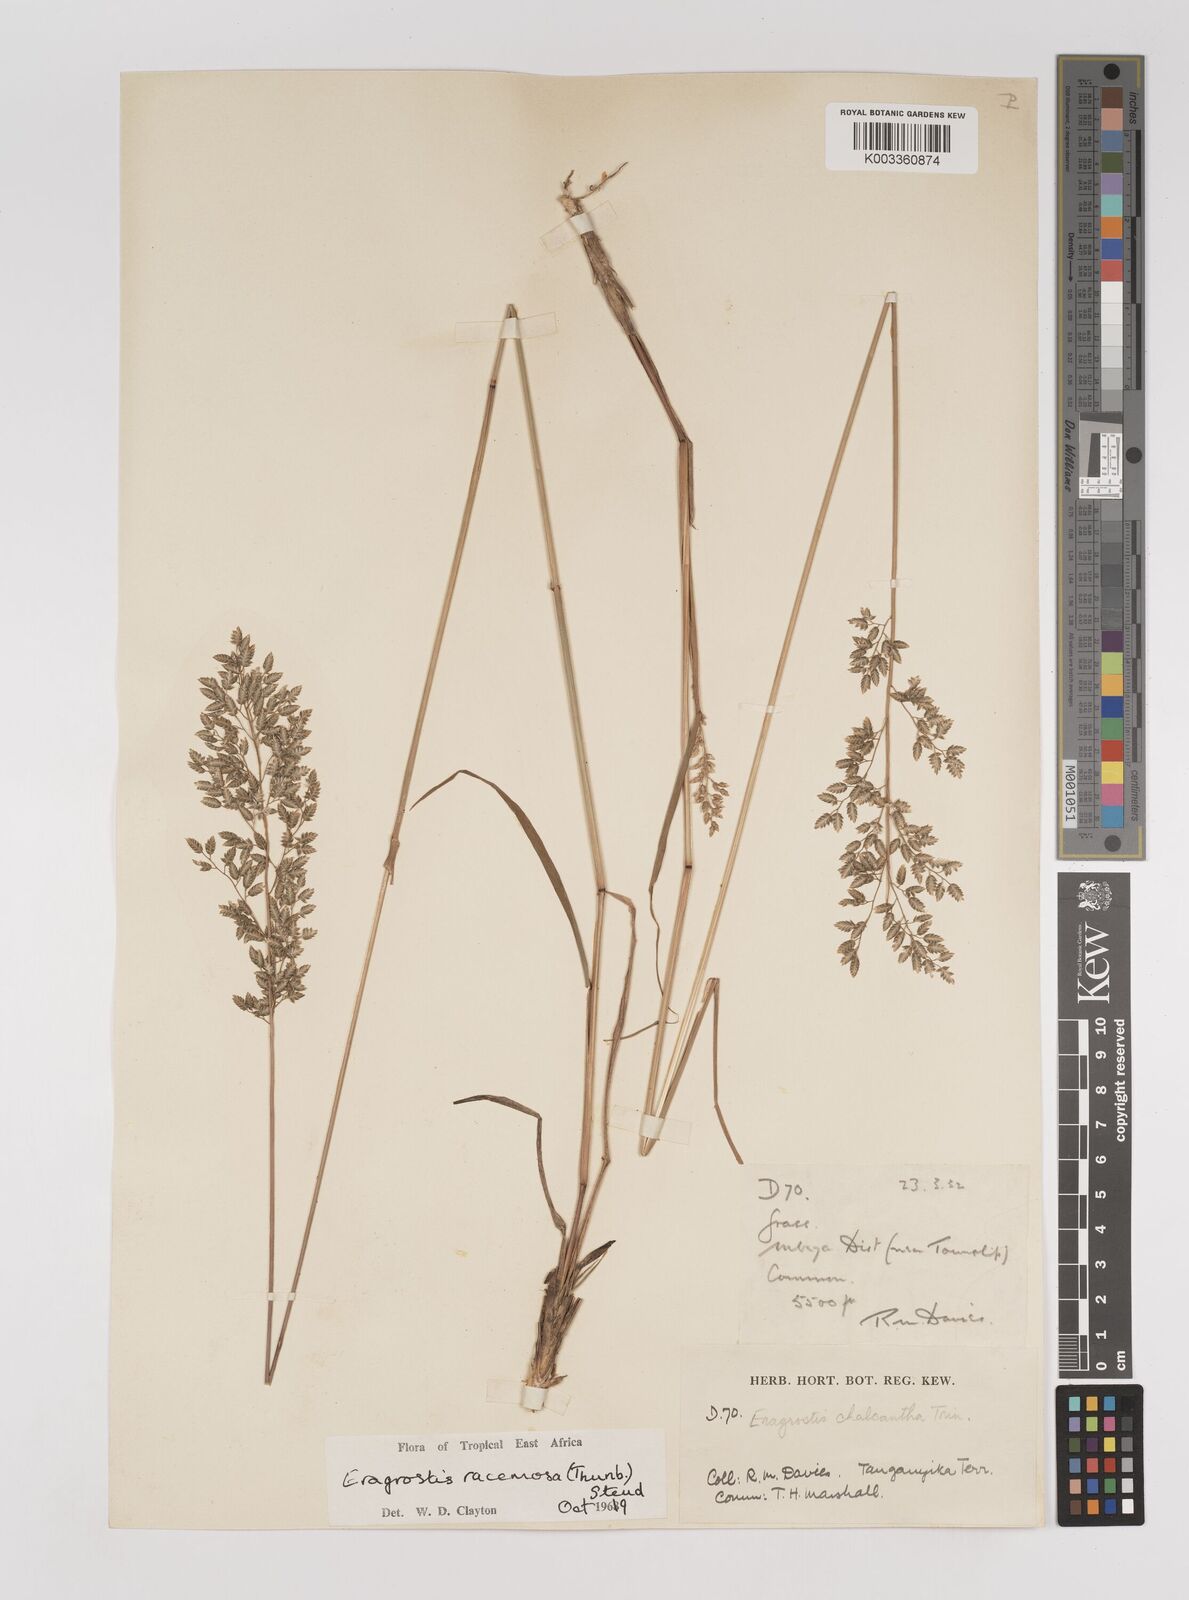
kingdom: Plantae
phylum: Tracheophyta
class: Liliopsida
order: Poales
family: Poaceae
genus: Eragrostis
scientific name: Eragrostis racemosa
